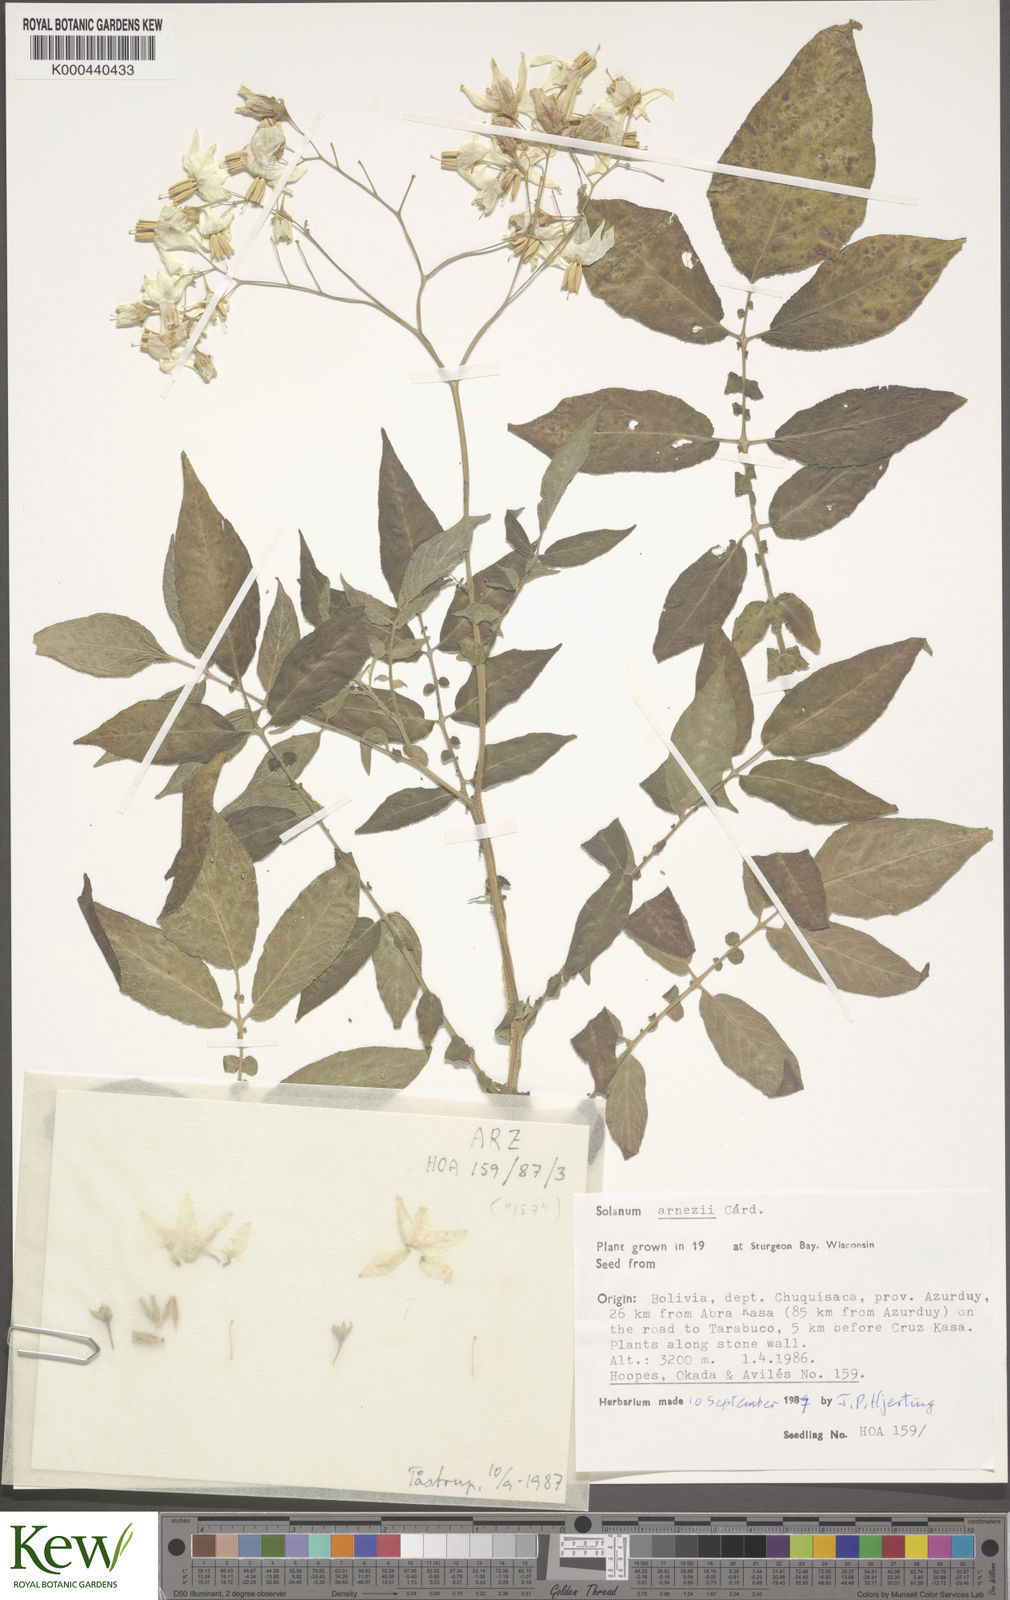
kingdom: Plantae
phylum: Tracheophyta
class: Magnoliopsida
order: Solanales
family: Solanaceae
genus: Solanum
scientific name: Solanum chacoense
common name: Chaco potato
